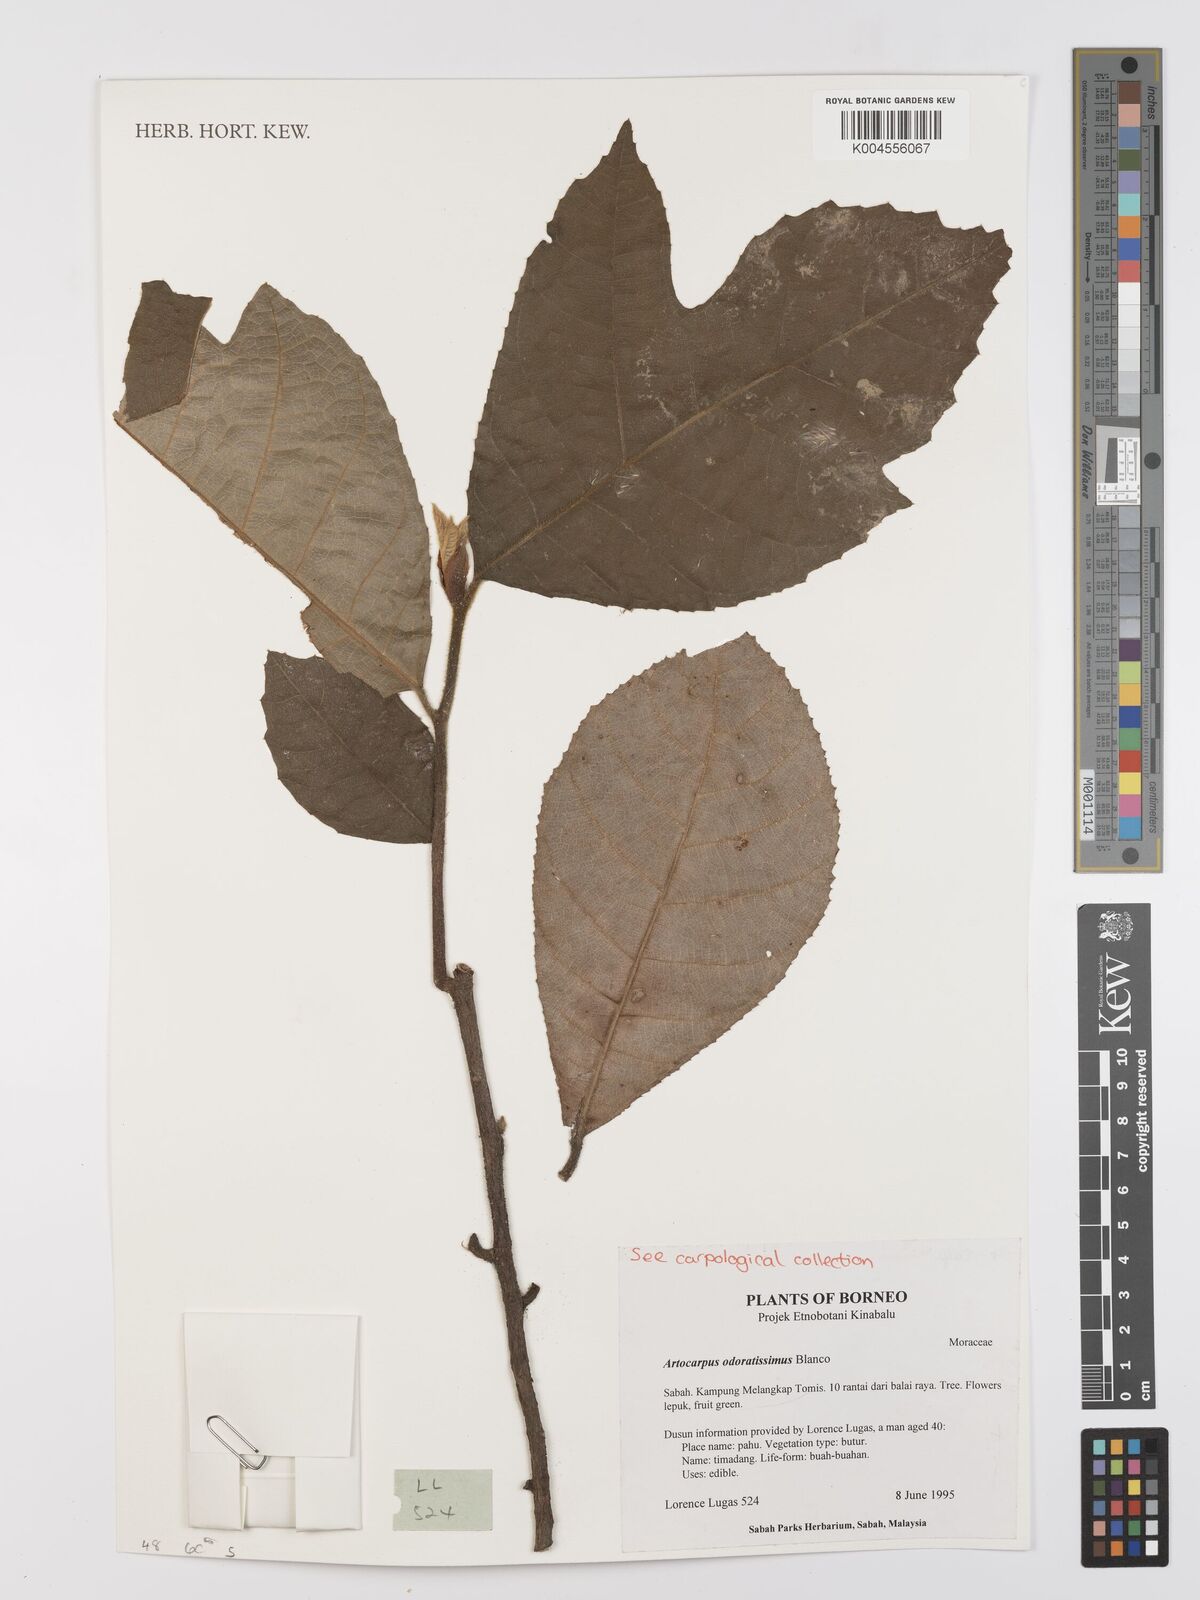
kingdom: Plantae
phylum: Tracheophyta
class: Magnoliopsida
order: Rosales
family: Moraceae
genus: Artocarpus
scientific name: Artocarpus odoratissimus
